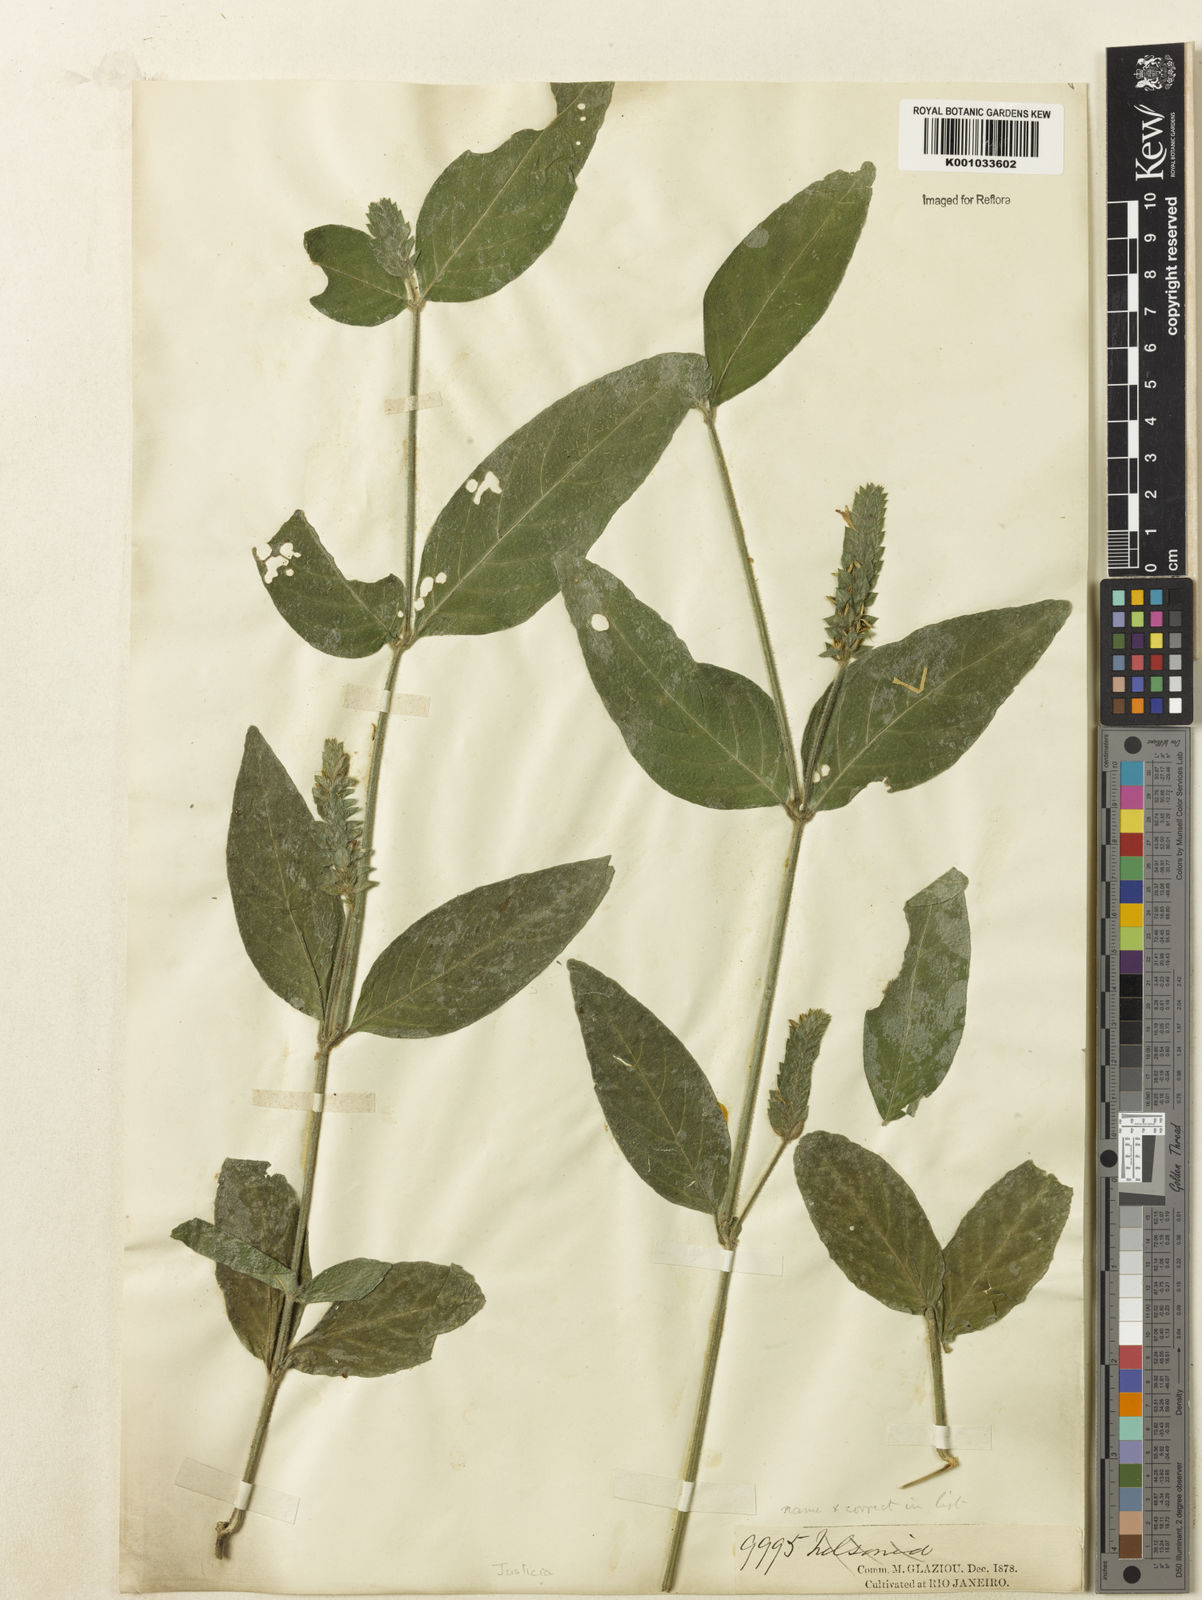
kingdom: Plantae
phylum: Tracheophyta
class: Magnoliopsida
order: Lamiales
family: Acanthaceae
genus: Justicia
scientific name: Justicia yurimaguensis
